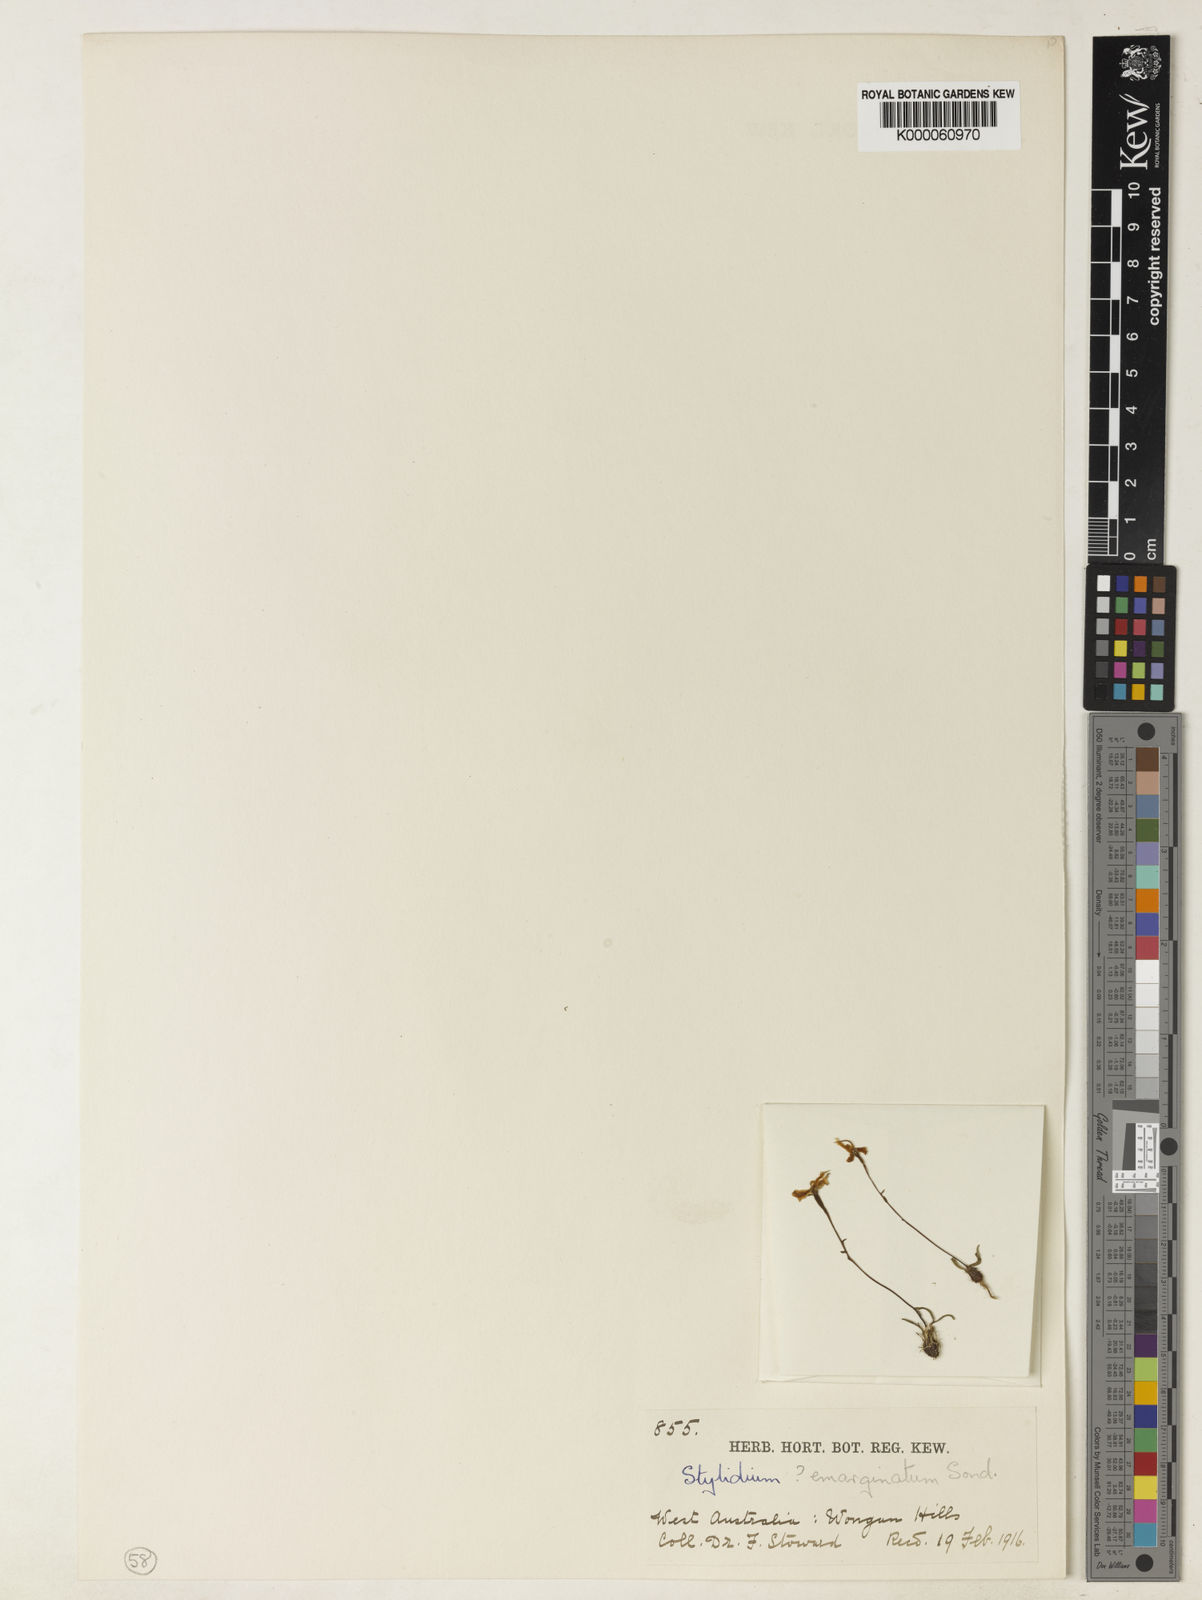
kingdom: Plantae
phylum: Tracheophyta
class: Magnoliopsida
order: Asterales
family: Stylidiaceae
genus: Stylidium
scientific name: Stylidium emarginatum
